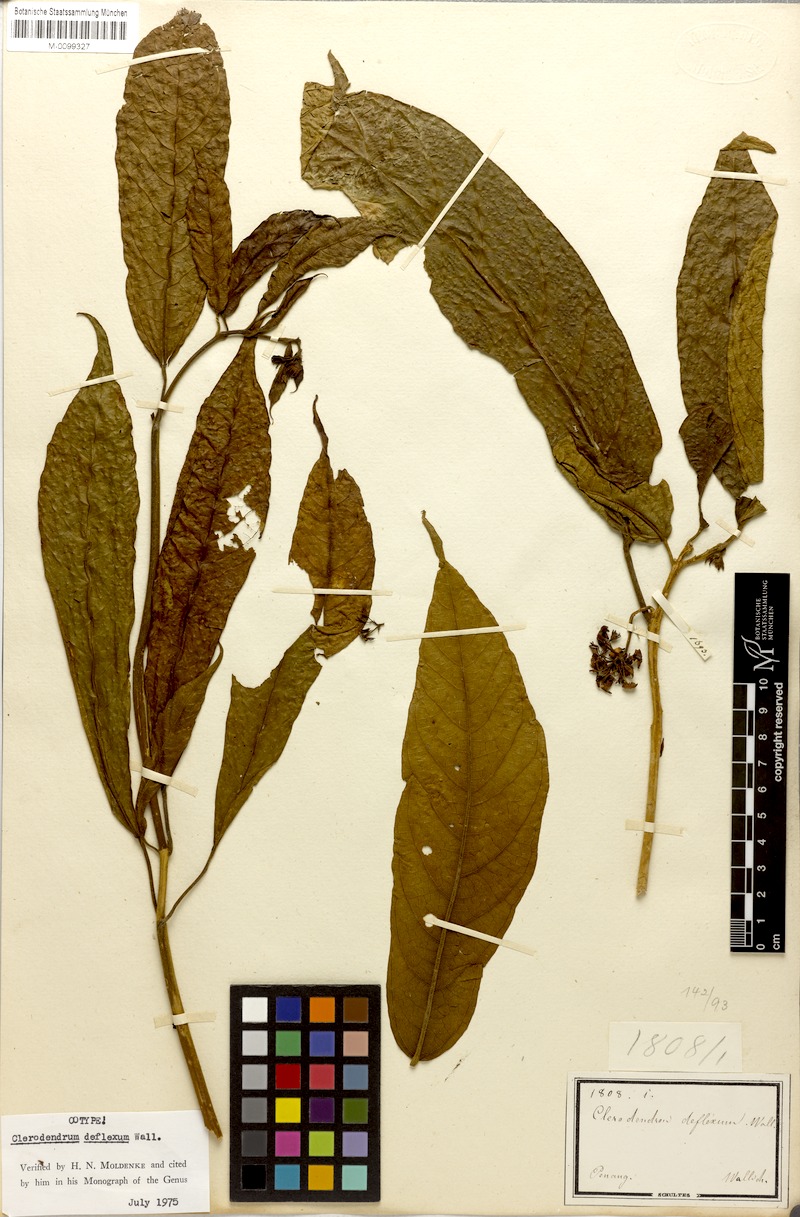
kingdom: Plantae
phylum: Tracheophyta
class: Magnoliopsida
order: Lamiales
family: Lamiaceae
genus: Clerodendrum
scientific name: Clerodendrum deflexum
